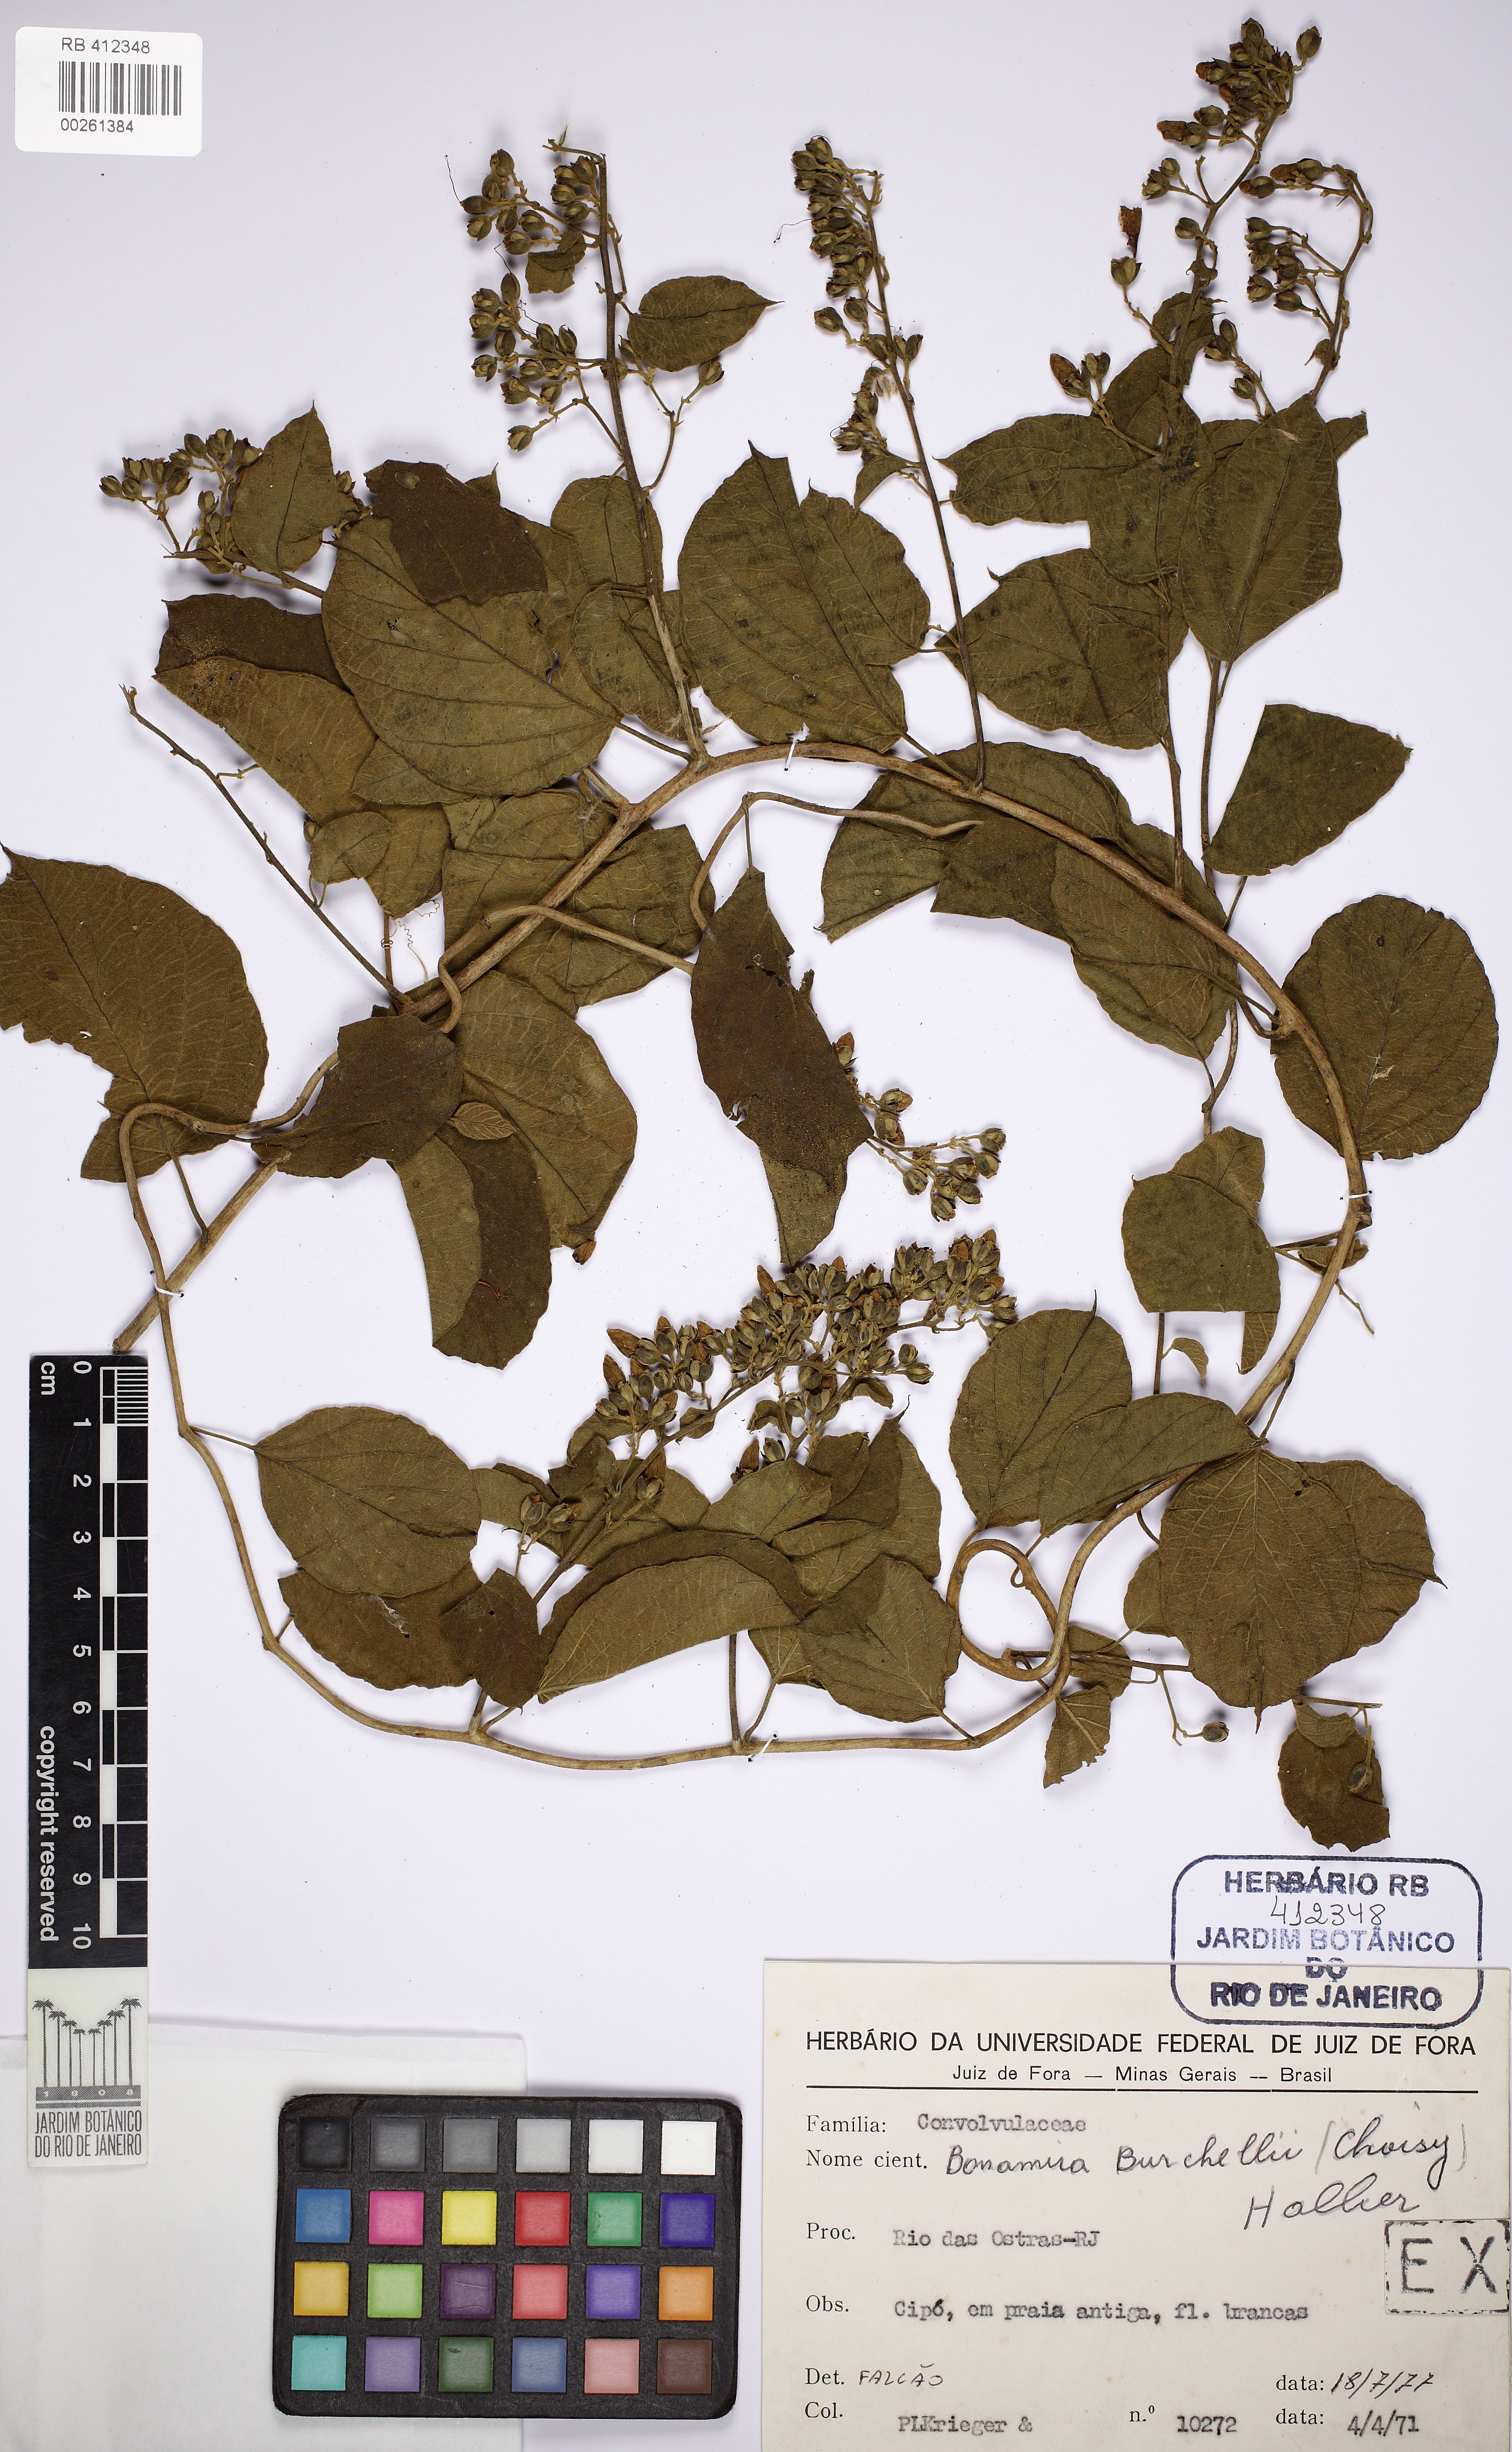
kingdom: Plantae
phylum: Tracheophyta
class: Magnoliopsida
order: Solanales
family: Convolvulaceae
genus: Bonamia
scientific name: Bonamia agrostopolis
